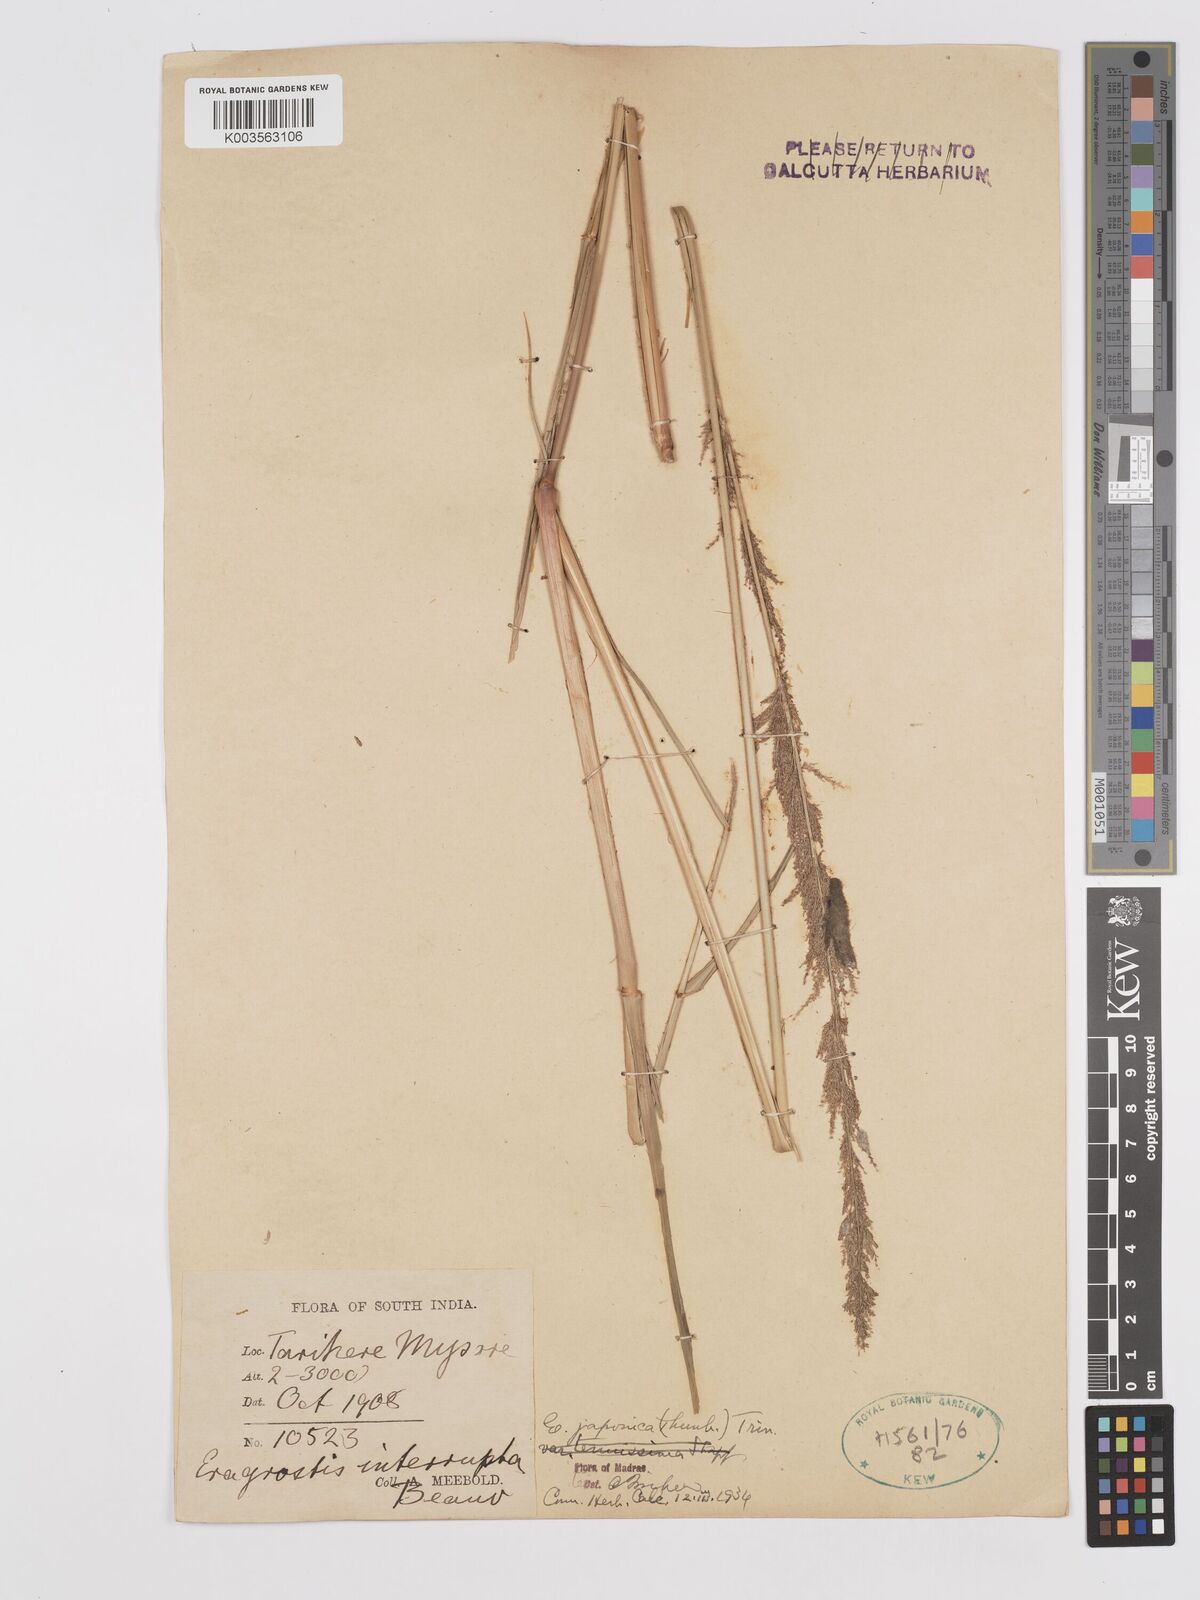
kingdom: Plantae
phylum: Tracheophyta
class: Liliopsida
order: Poales
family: Poaceae
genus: Eragrostis
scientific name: Eragrostis japonica
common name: Pond lovegrass
